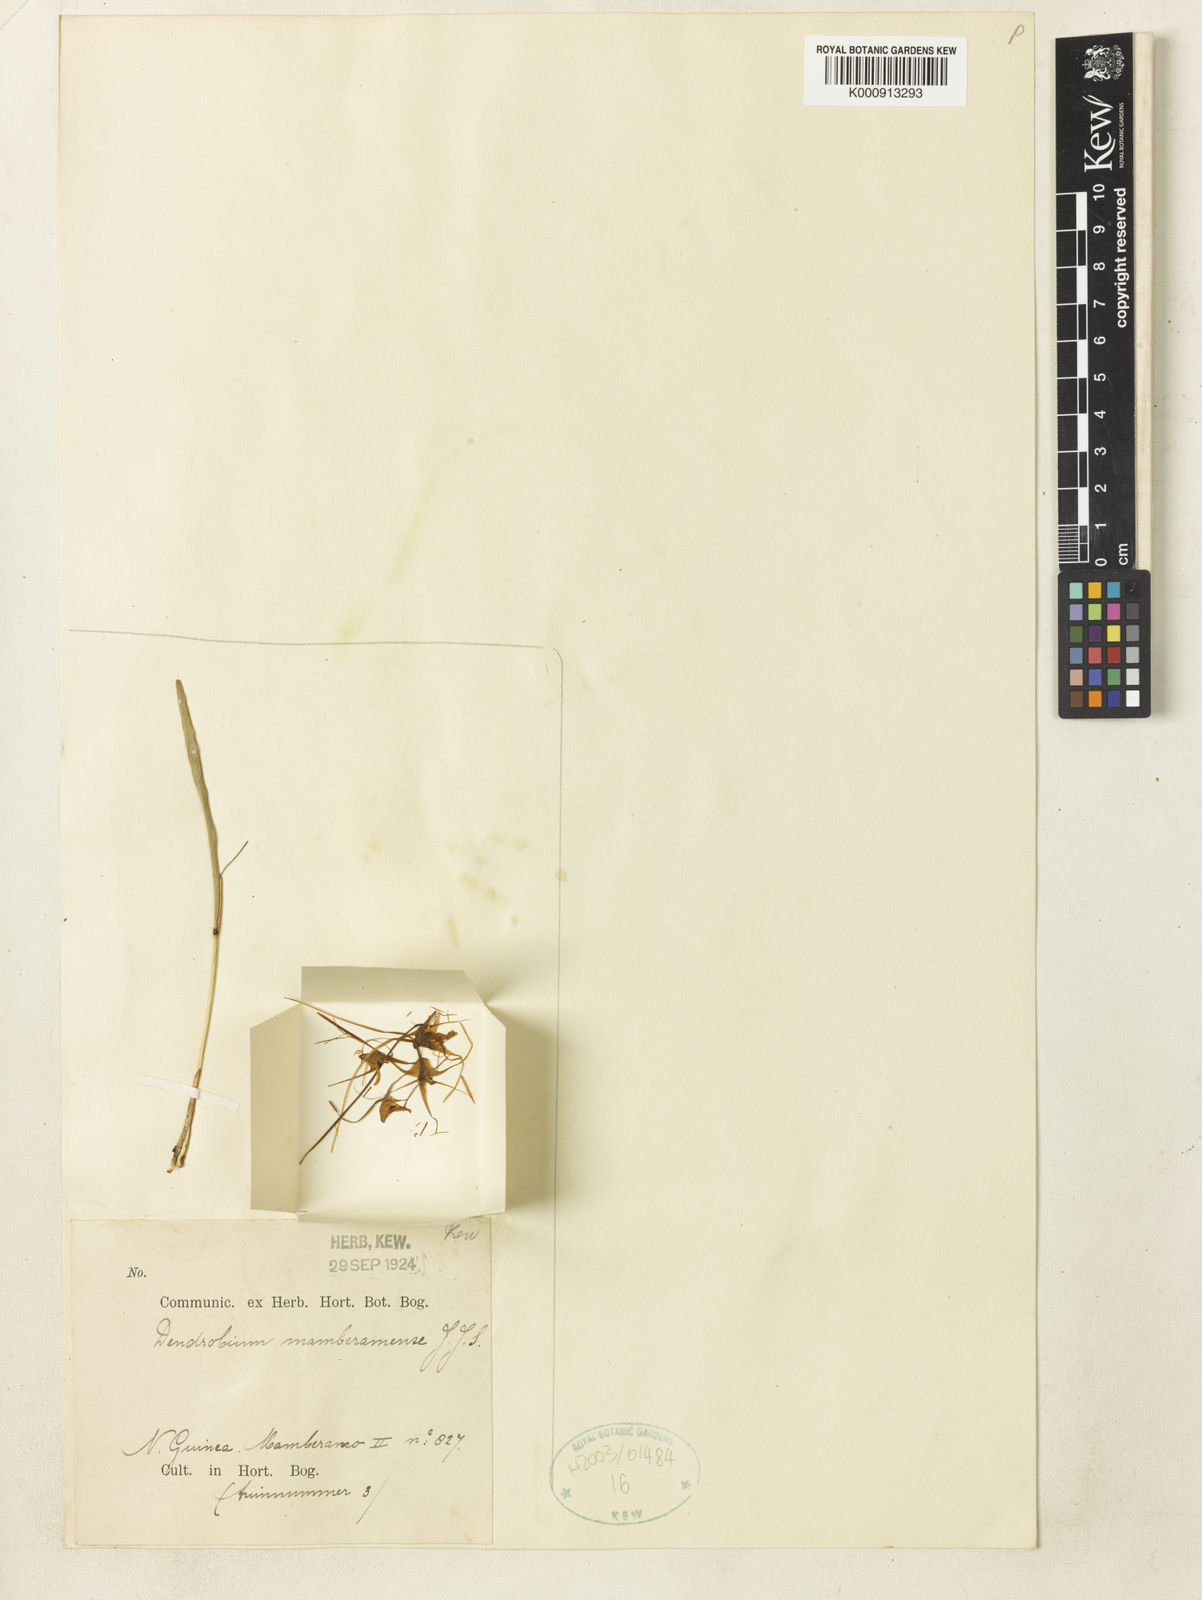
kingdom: Plantae
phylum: Tracheophyta
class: Liliopsida
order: Asparagales
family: Orchidaceae
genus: Dendrobium
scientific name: Dendrobium mamberamense
